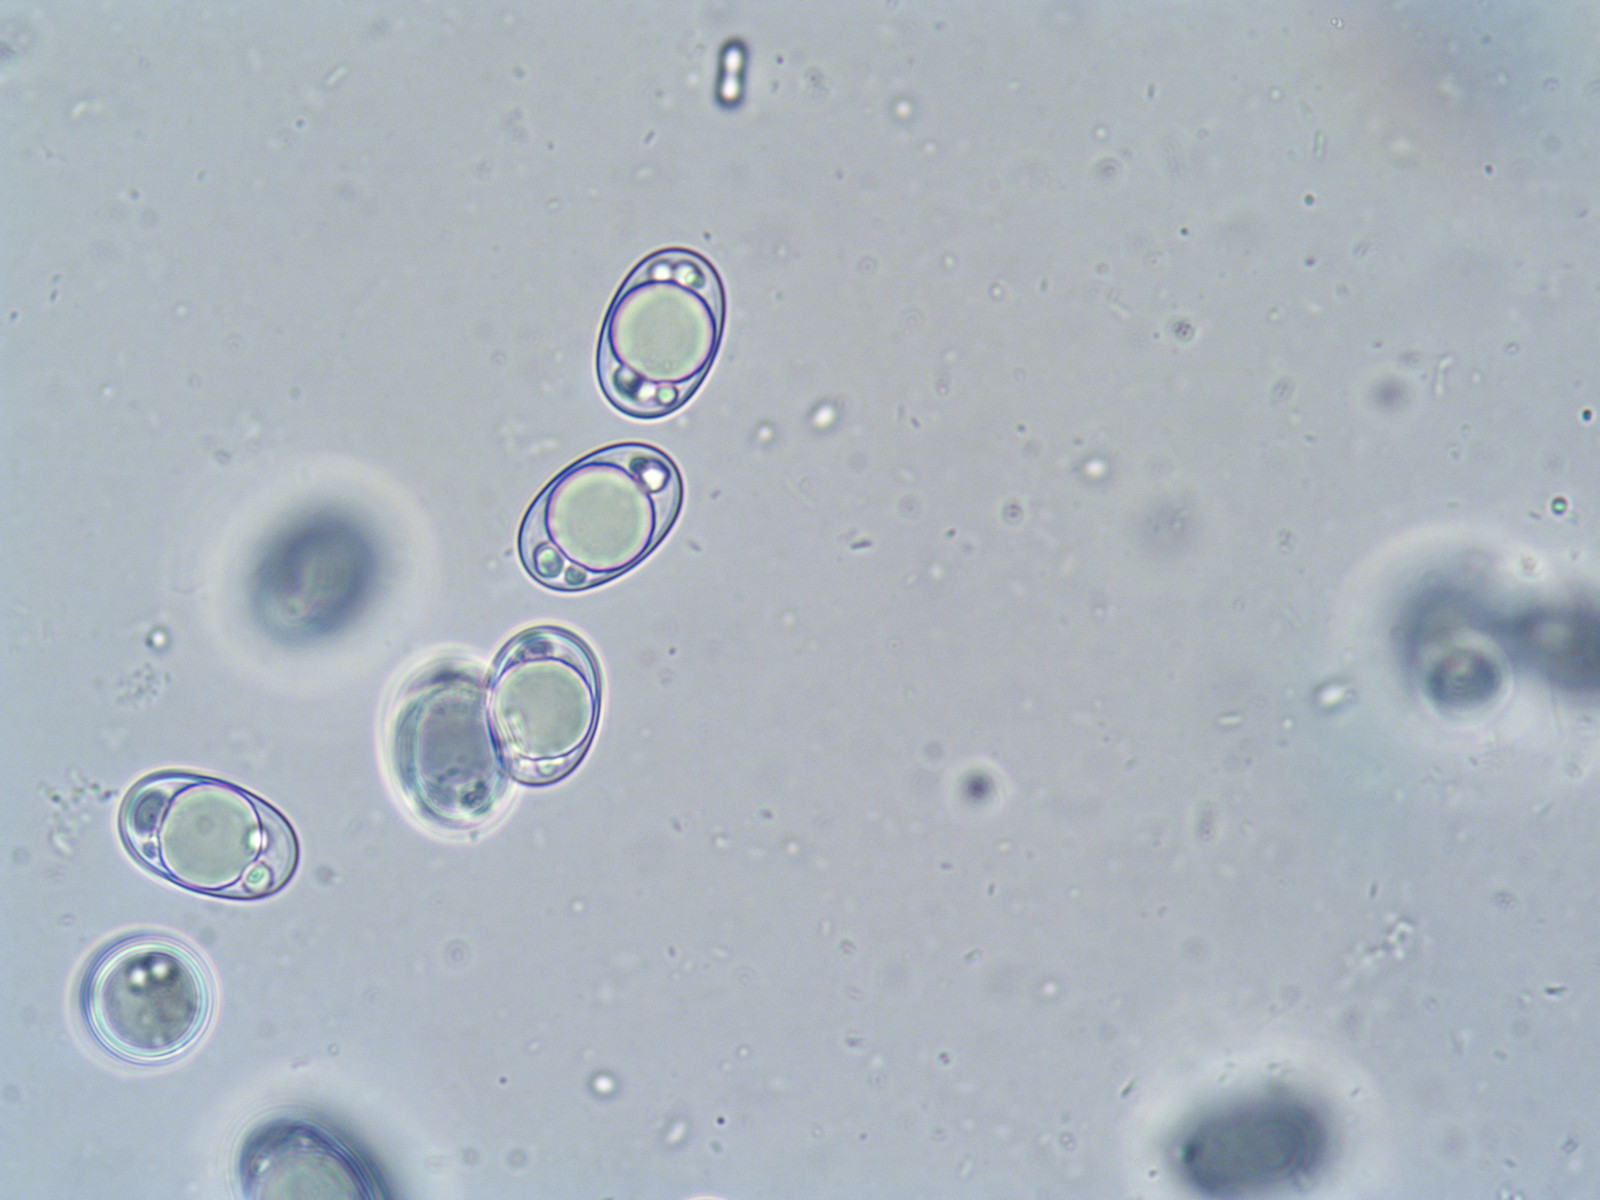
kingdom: Fungi
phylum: Ascomycota
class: Pezizomycetes
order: Pezizales
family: Helvellaceae
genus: Helvella
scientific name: Helvella crispa
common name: kruset foldhat
